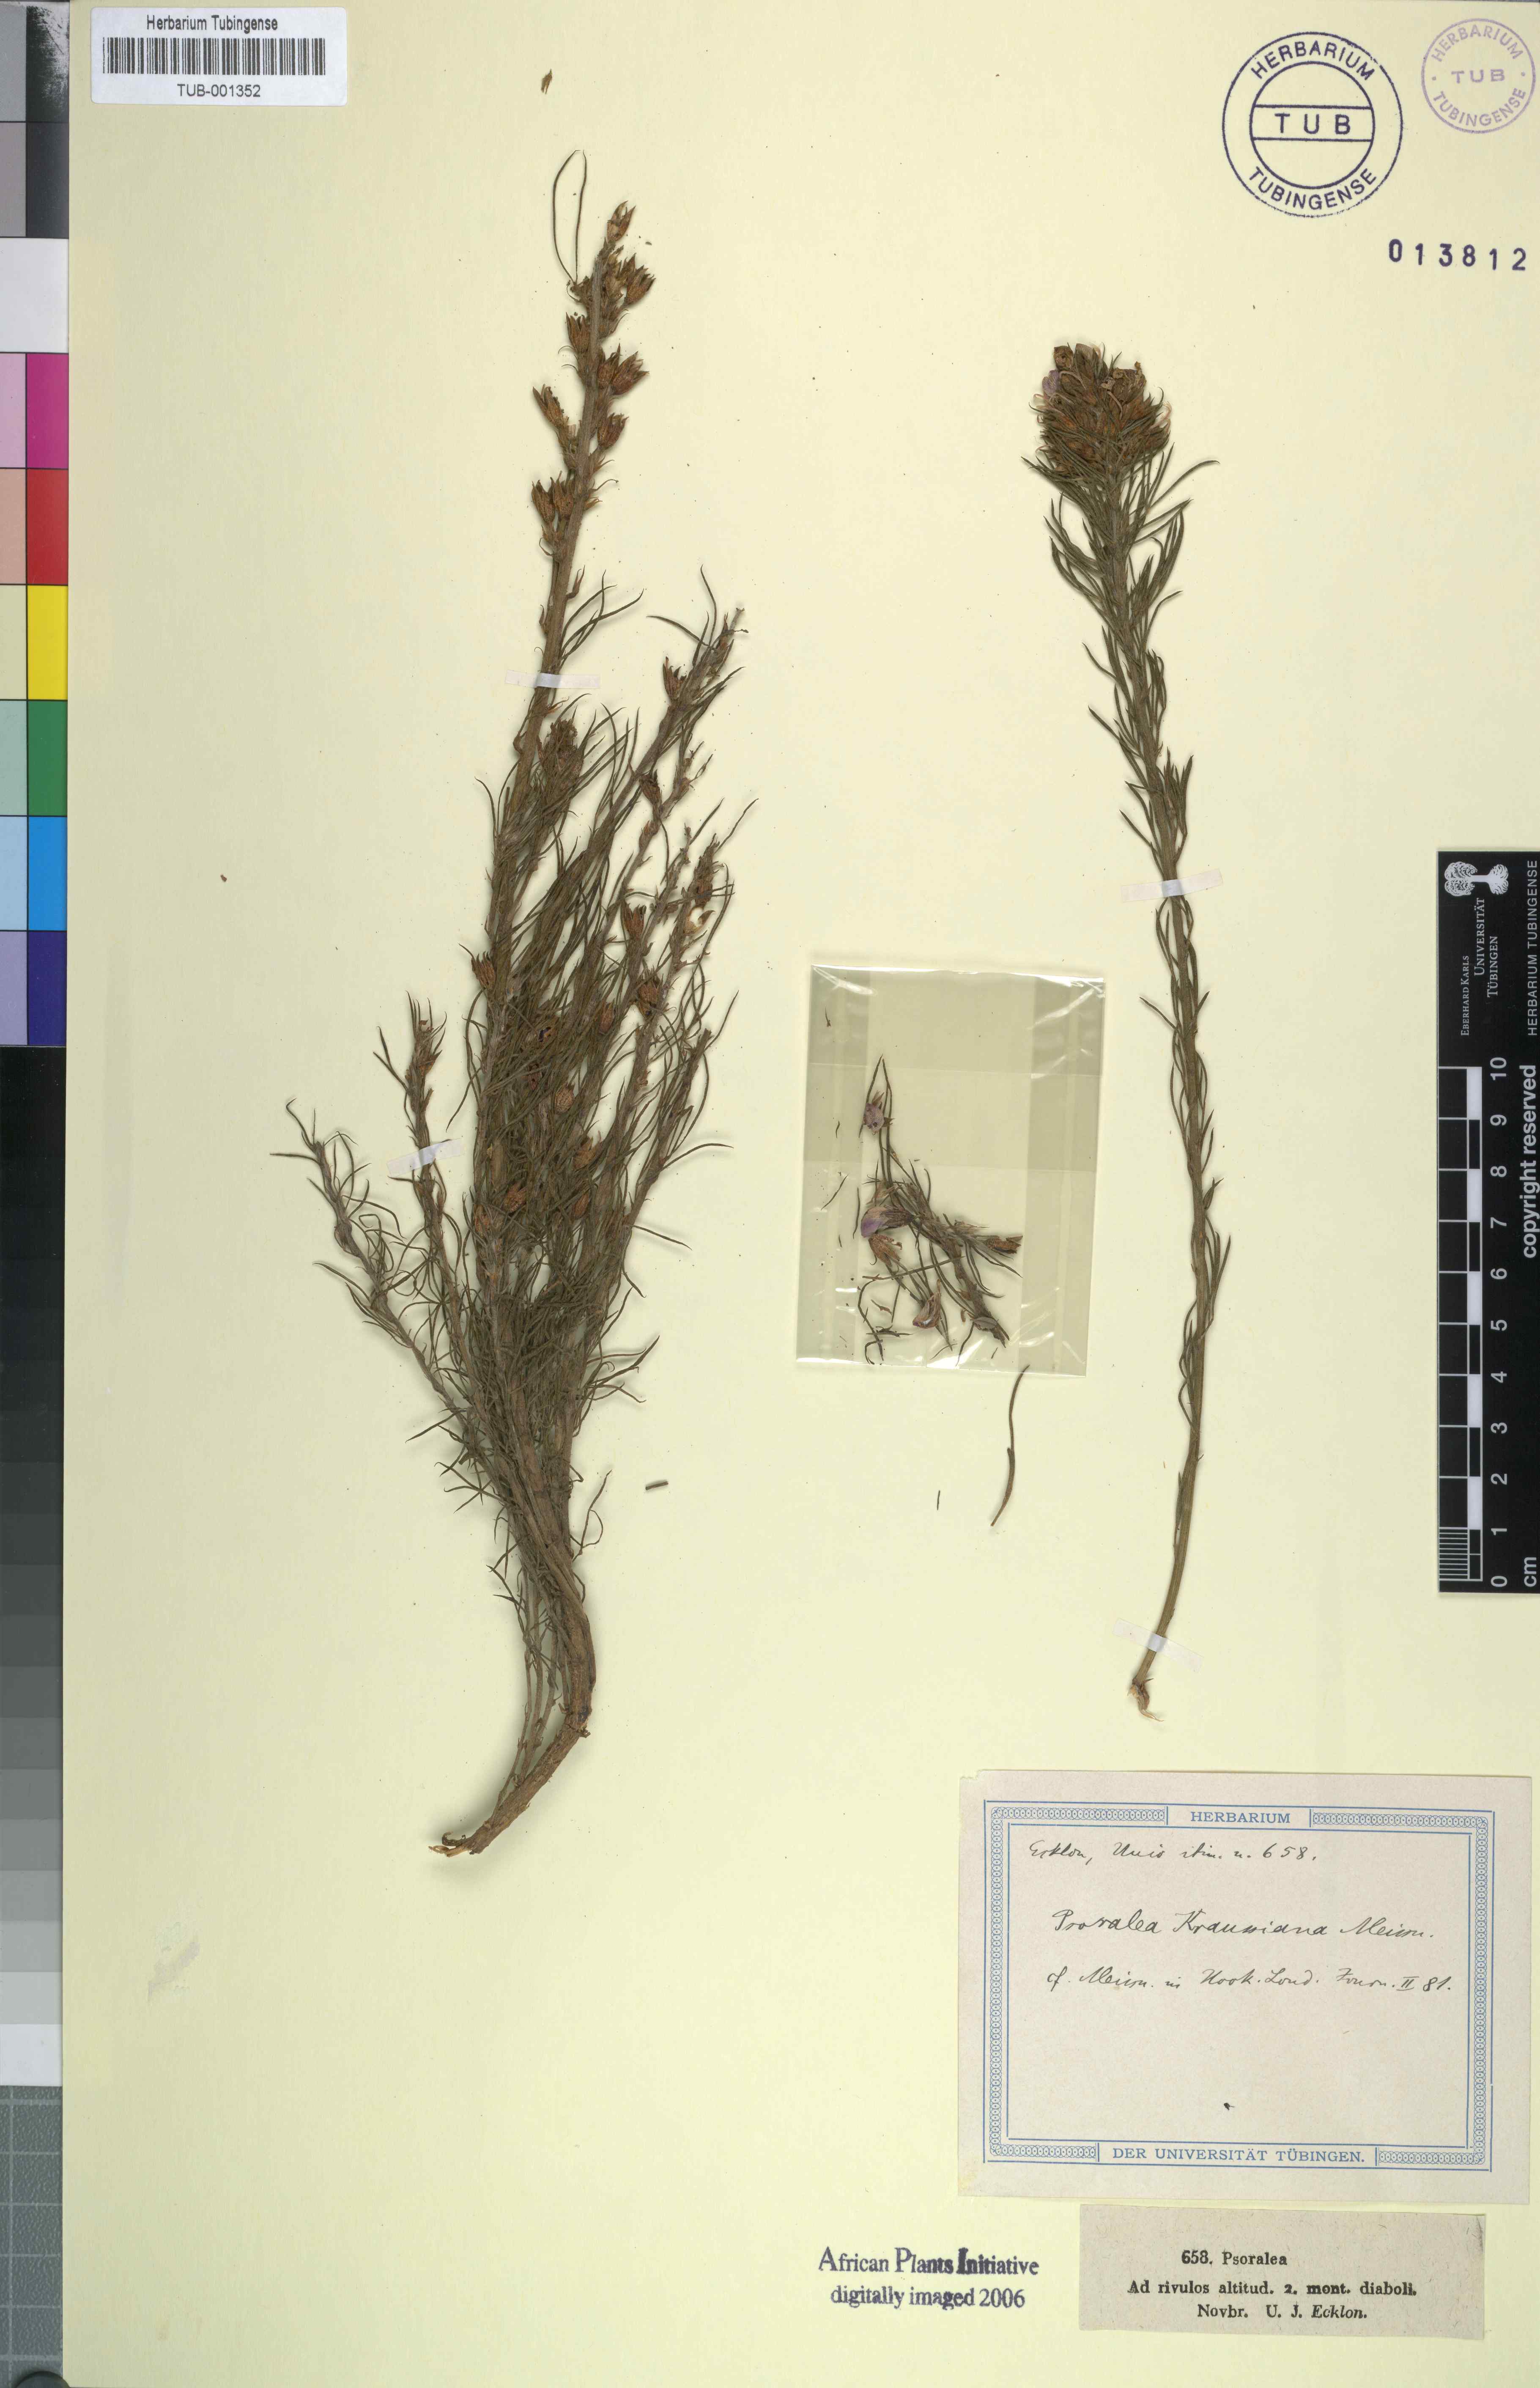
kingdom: Plantae
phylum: Tracheophyta
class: Magnoliopsida
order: Fabales
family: Fabaceae
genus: Psoralea
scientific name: Psoralea aculeata
